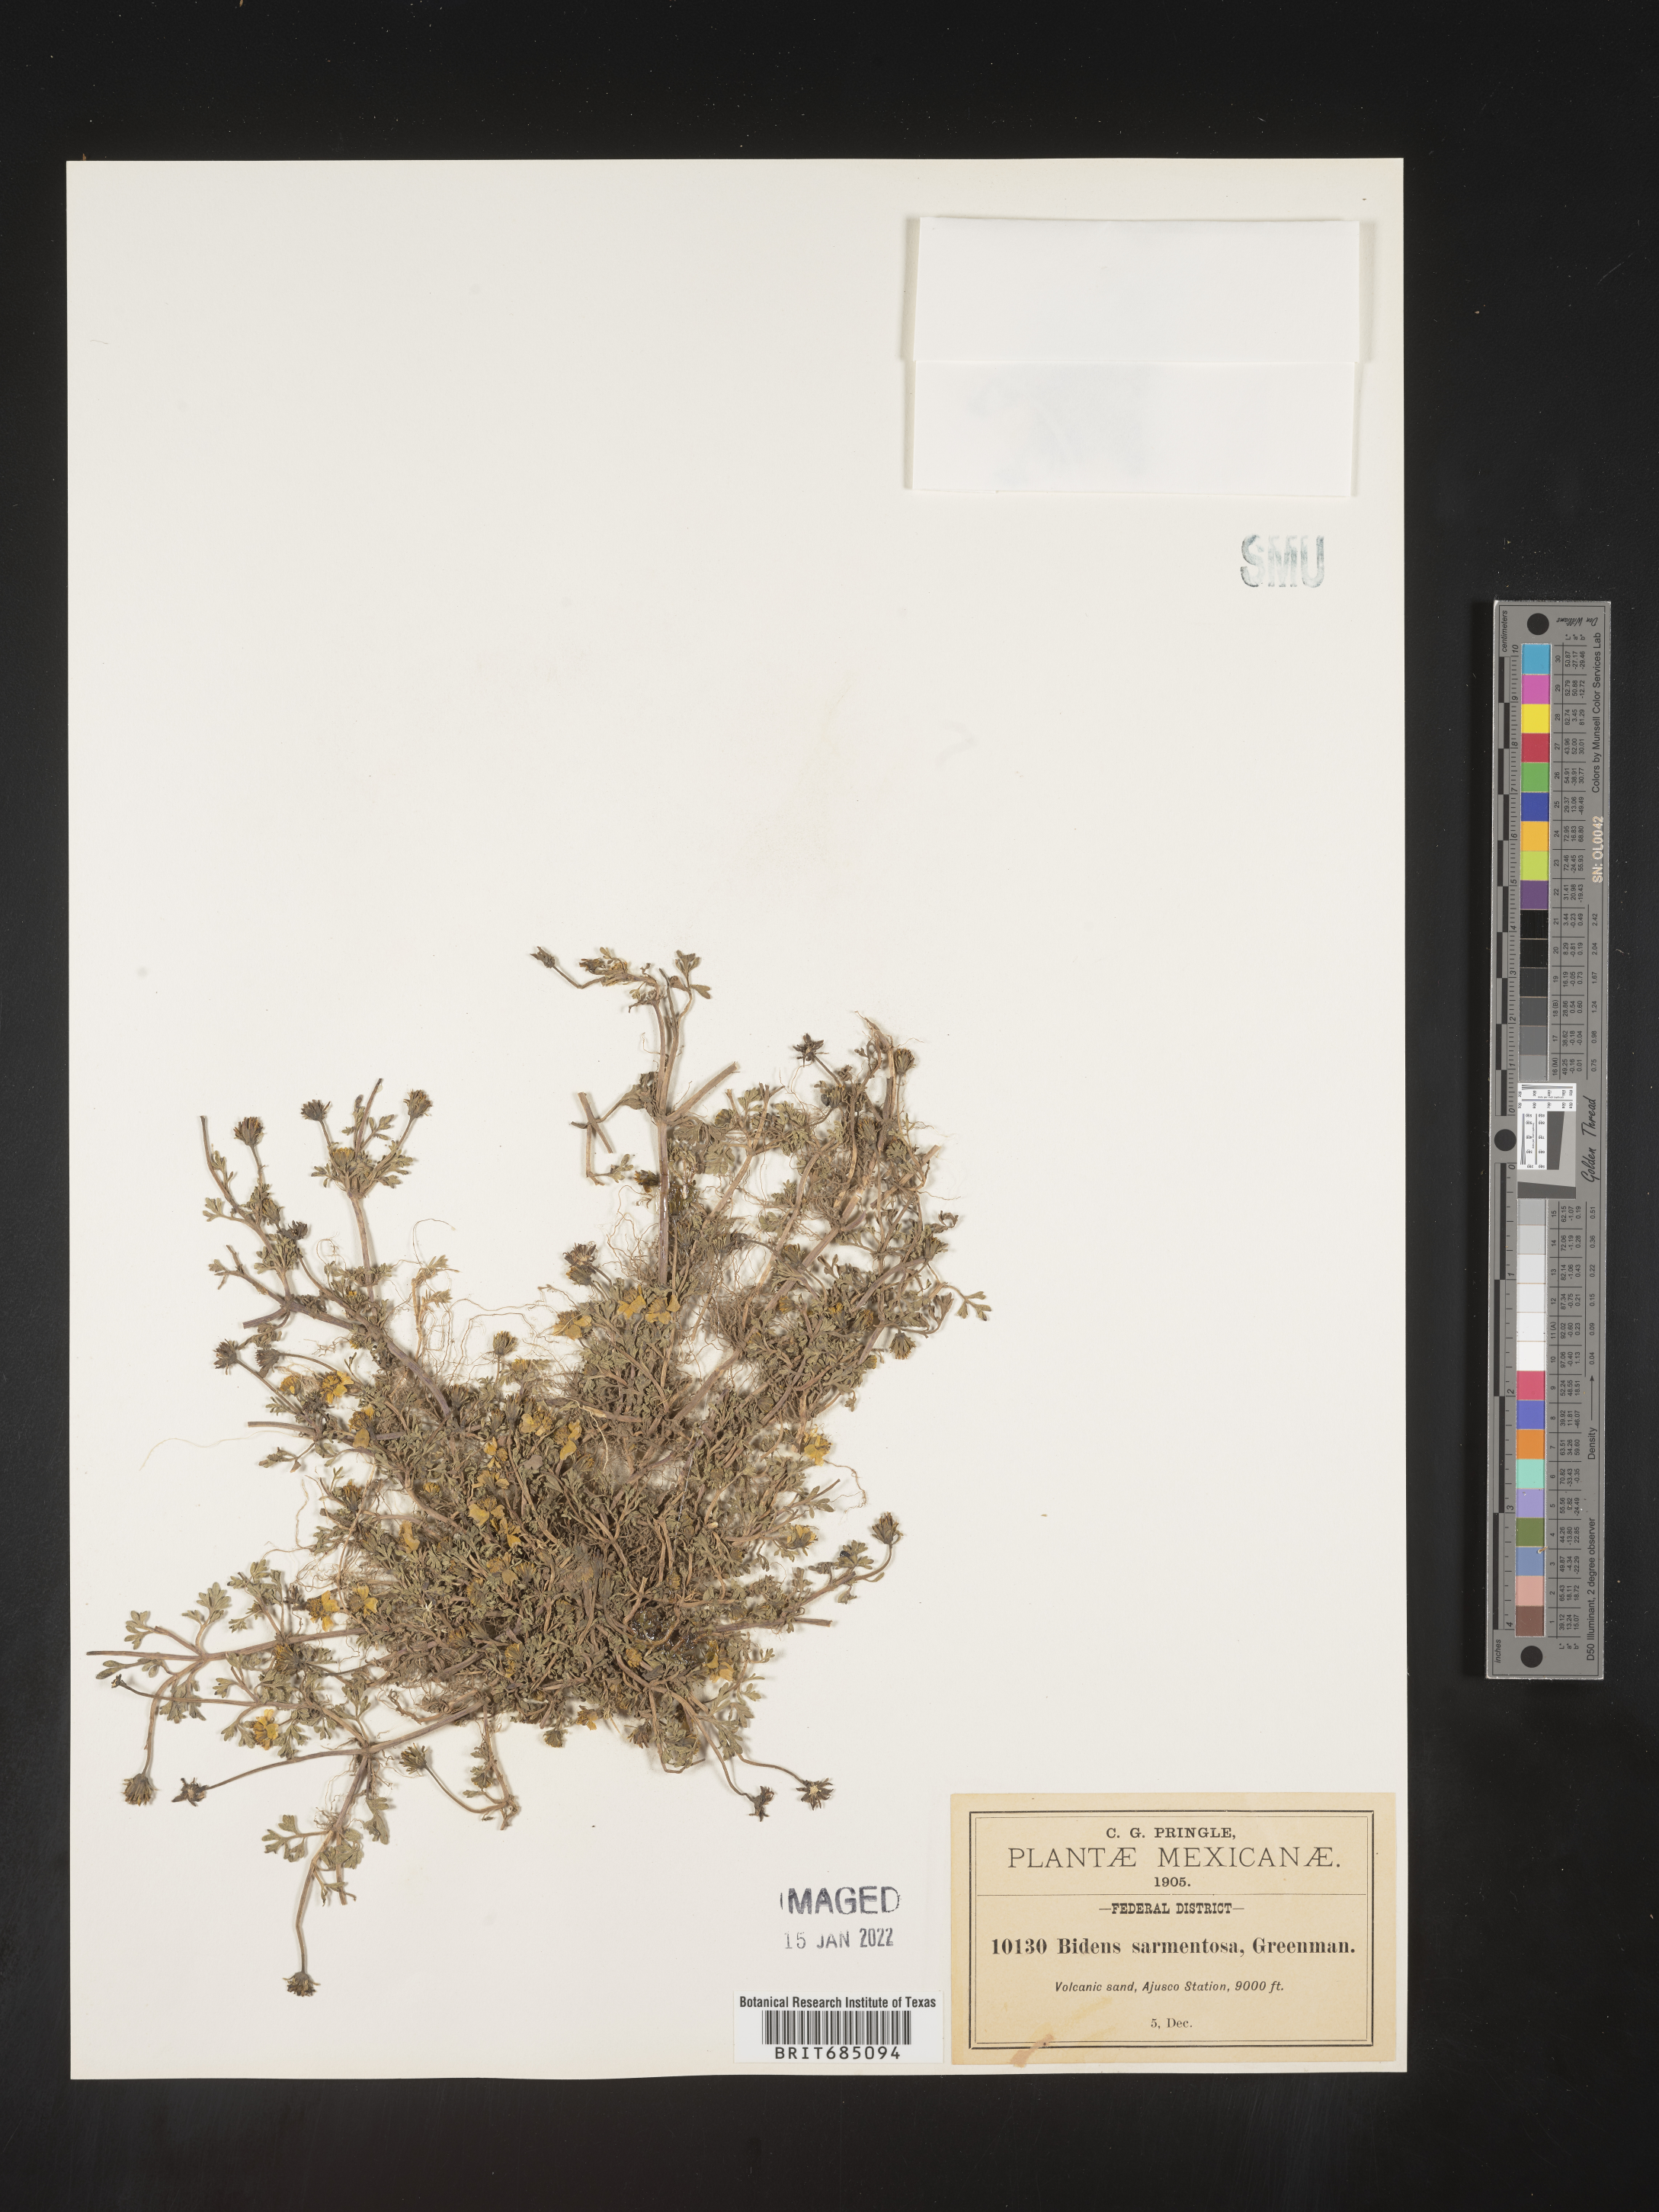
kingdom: Plantae
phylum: Tracheophyta
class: Magnoliopsida
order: Asterales
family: Asteraceae
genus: Bidens
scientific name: Bidens
